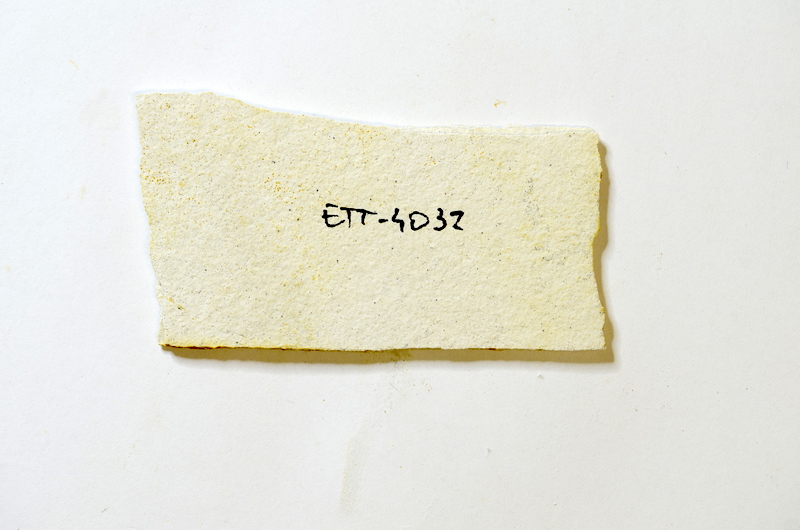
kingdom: Animalia
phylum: Chordata
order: Salmoniformes
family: Orthogonikleithridae
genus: Orthogonikleithrus
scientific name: Orthogonikleithrus hoelli
